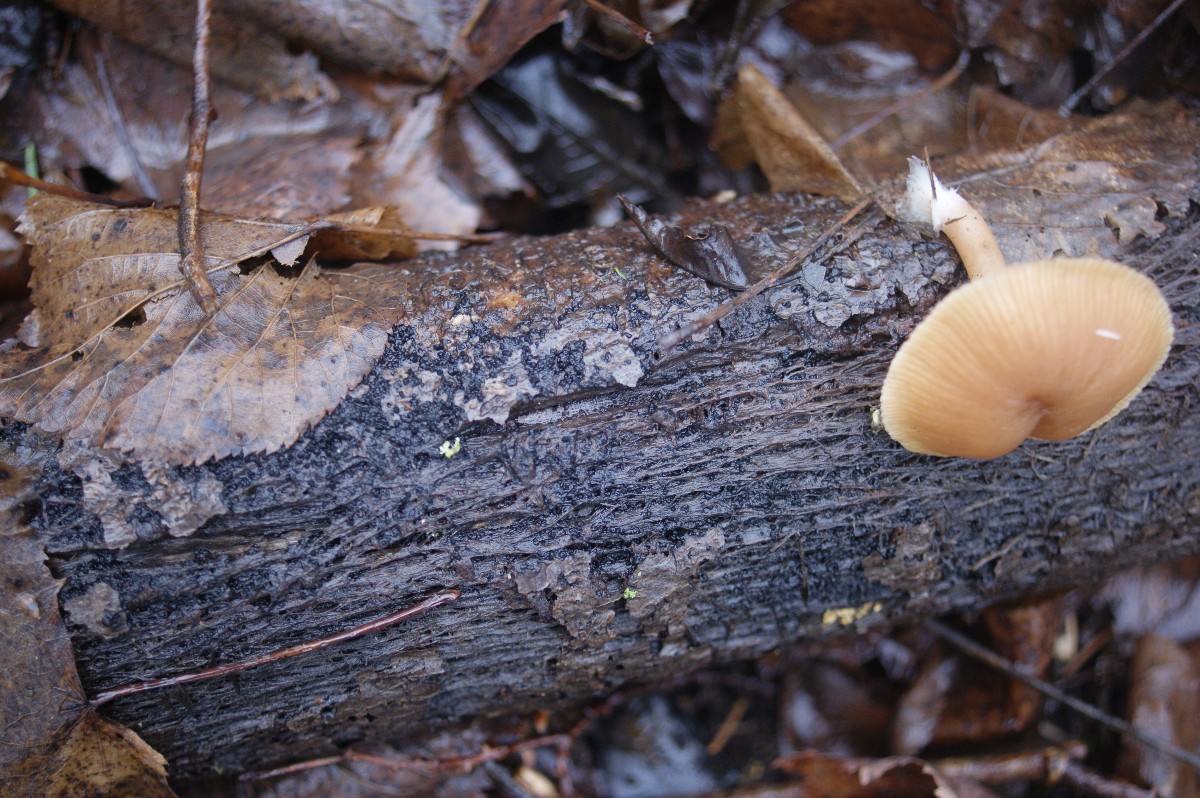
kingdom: Fungi
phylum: Basidiomycota
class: Agaricomycetes
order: Agaricales
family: Tubariaceae
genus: Tubaria
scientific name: Tubaria furfuracea
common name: kliddet fnughat
